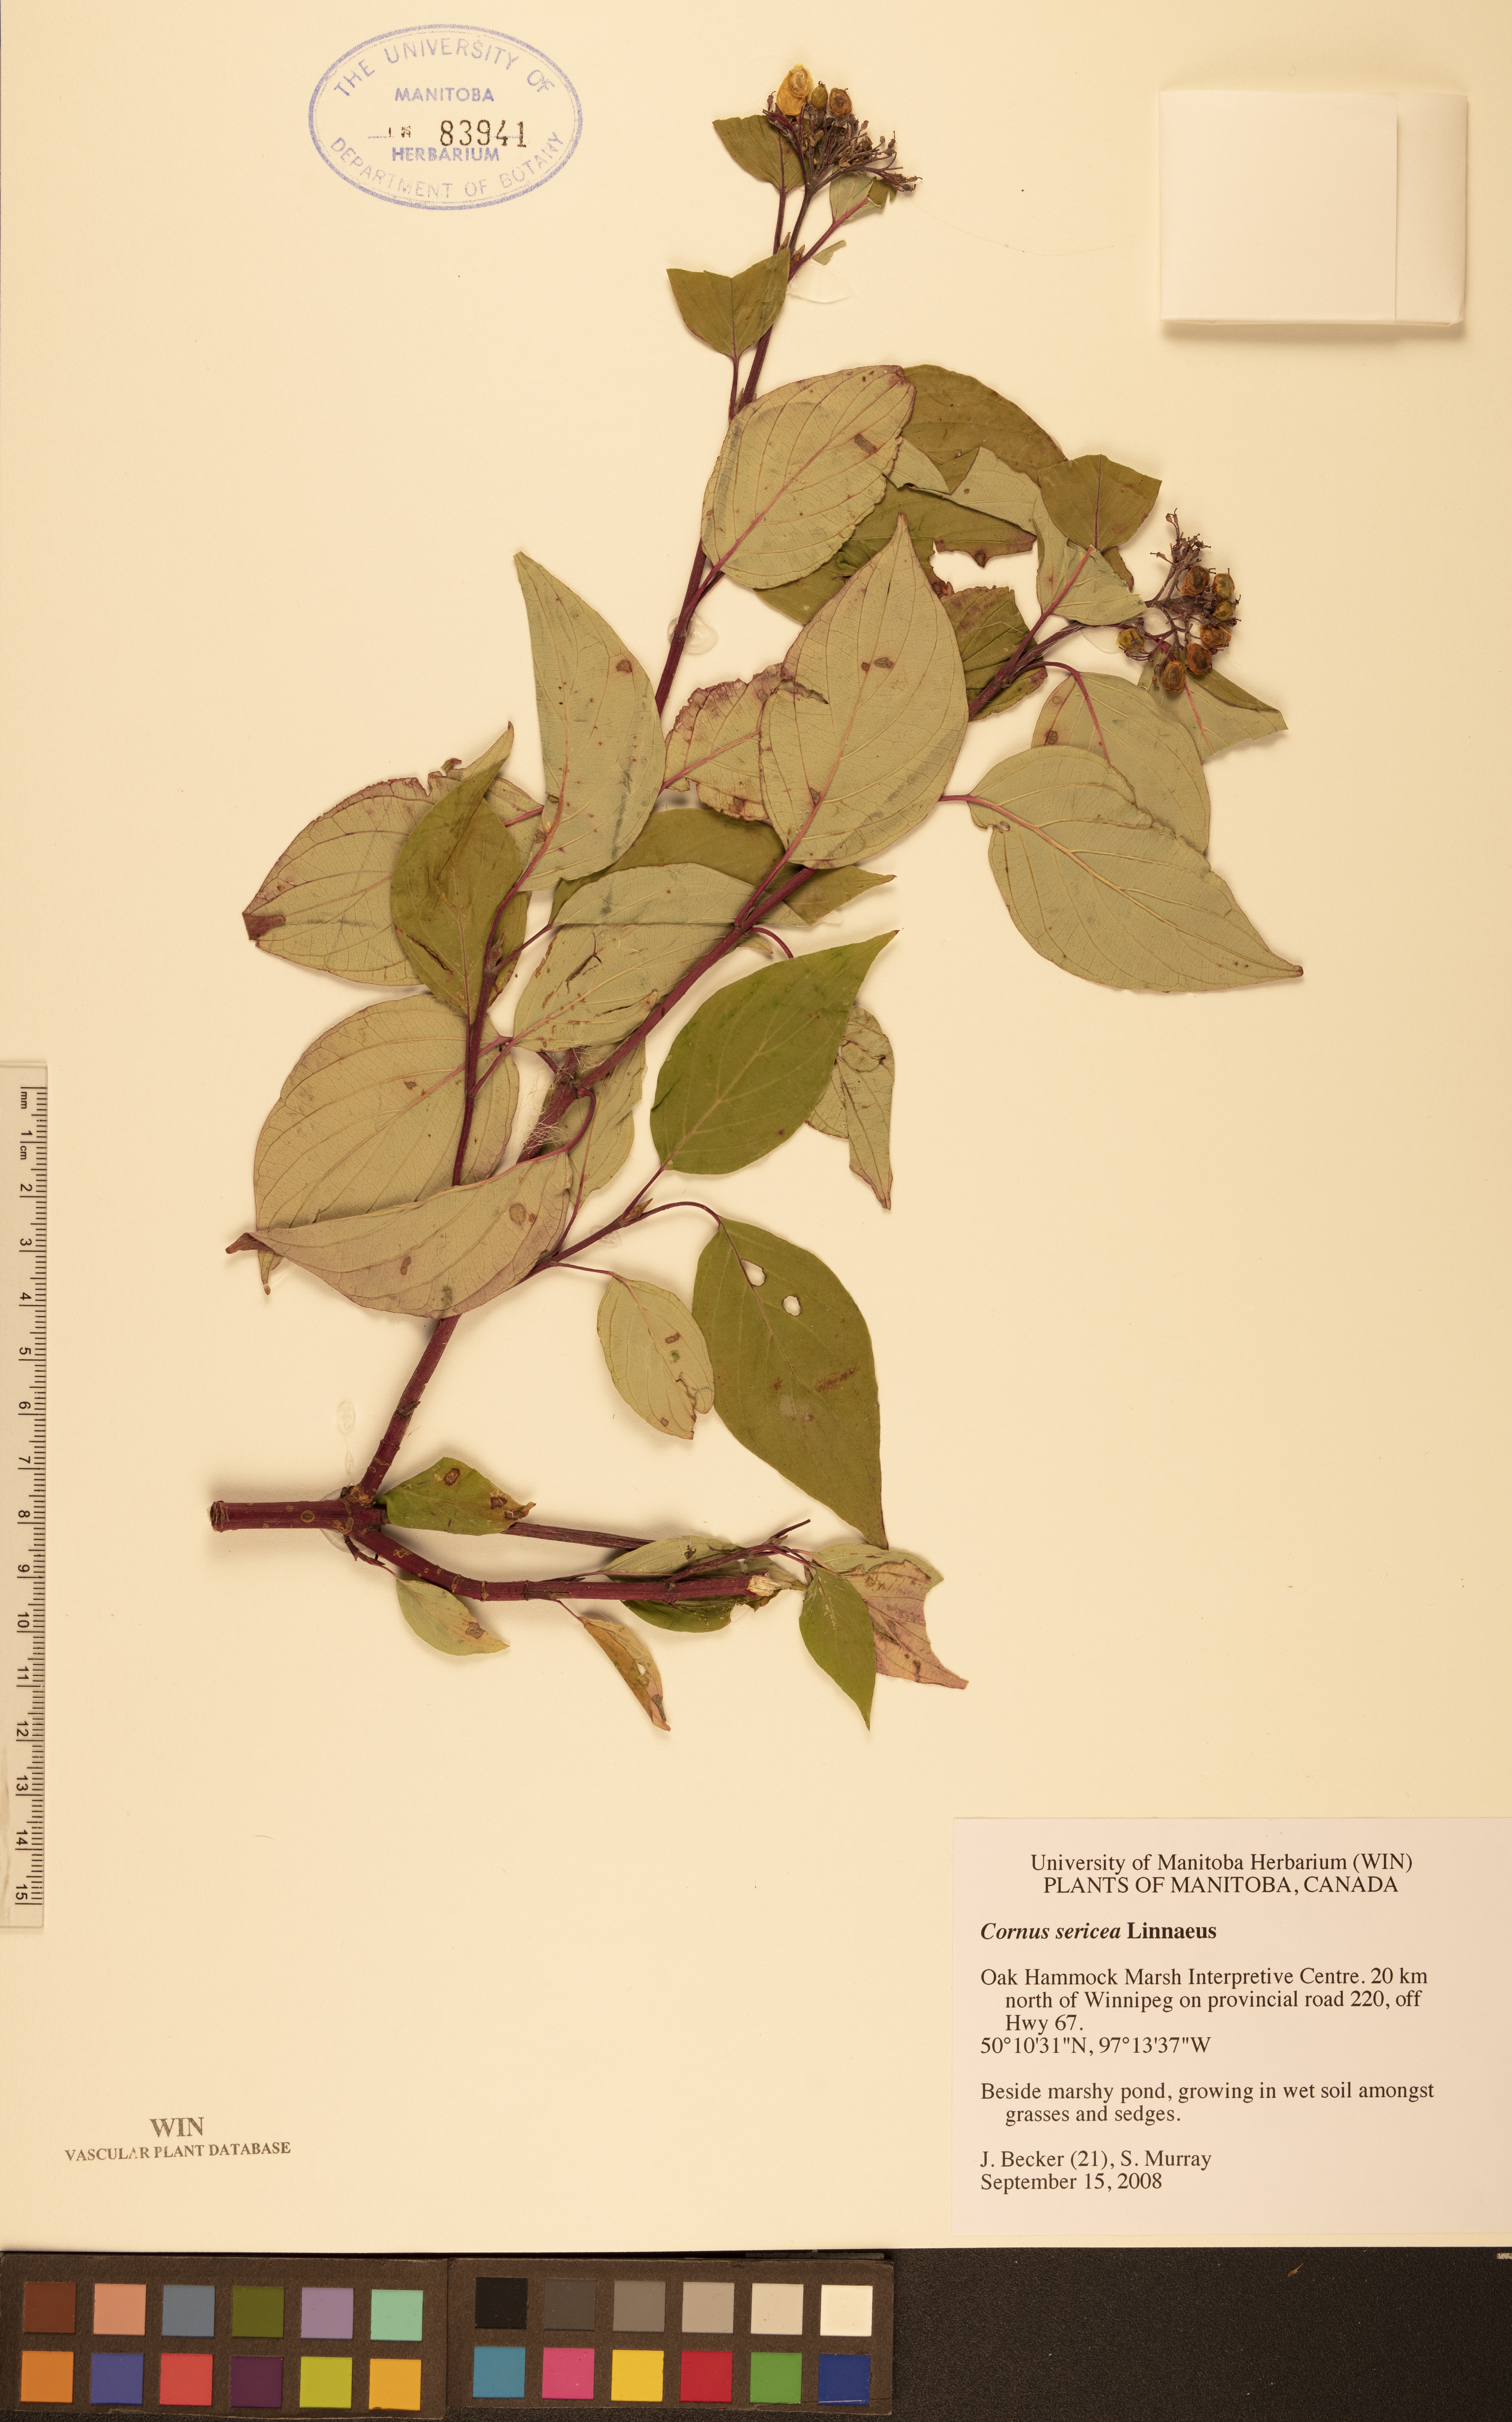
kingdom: Plantae
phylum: Tracheophyta
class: Magnoliopsida
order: Cornales
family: Cornaceae
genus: Cornus
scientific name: Cornus sericea
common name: Red-osier dogwood
